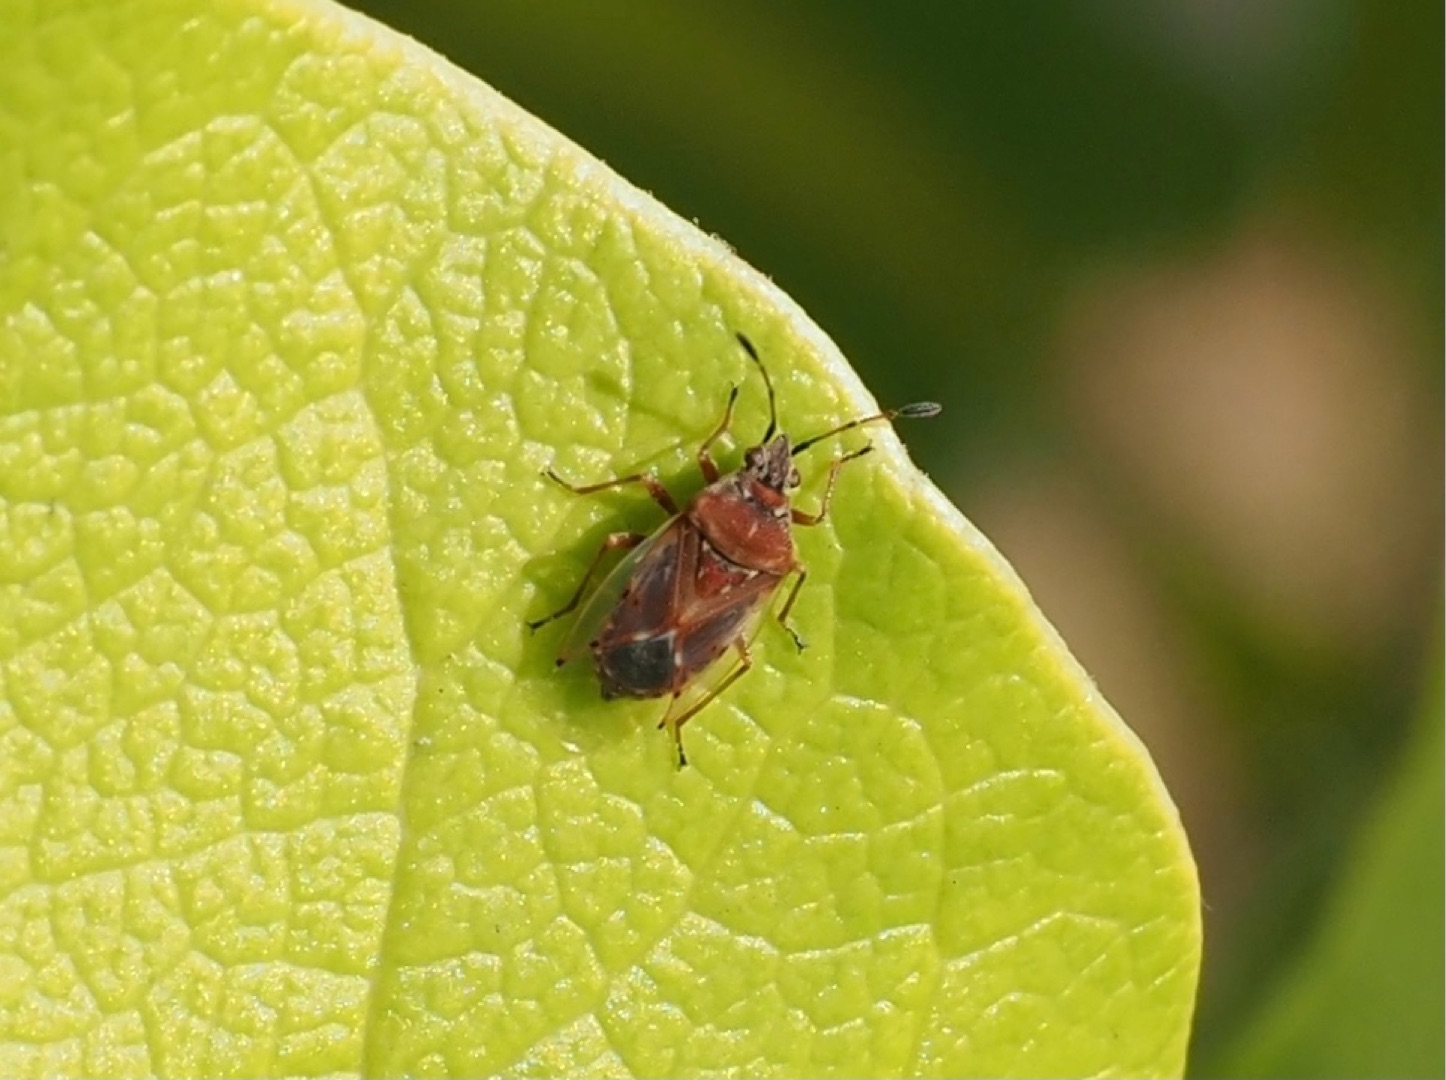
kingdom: Animalia
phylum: Arthropoda
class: Insecta
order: Hemiptera
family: Lygaeidae
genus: Kleidocerys
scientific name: Kleidocerys resedae
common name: Birkefrøtæge
